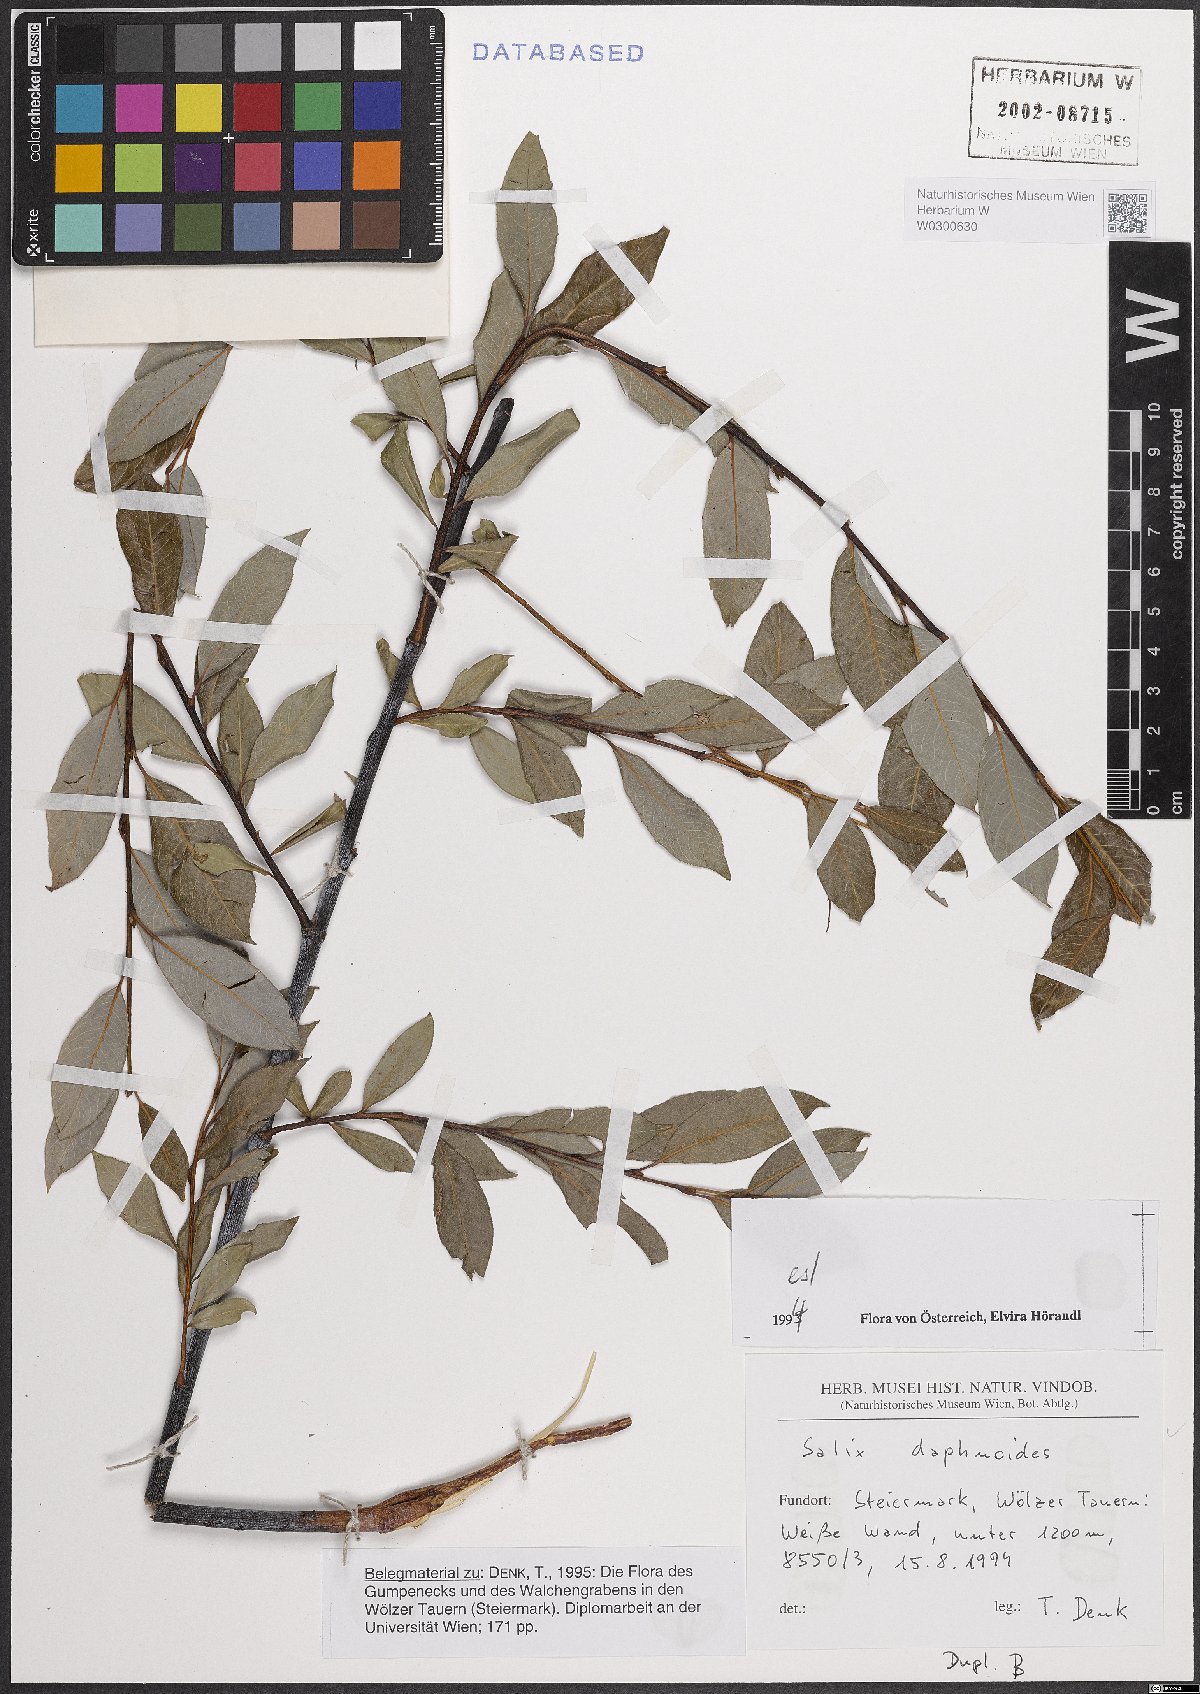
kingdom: Plantae
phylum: Tracheophyta
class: Magnoliopsida
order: Malpighiales
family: Salicaceae
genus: Salix
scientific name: Salix daphnoides
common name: European violet-willow
